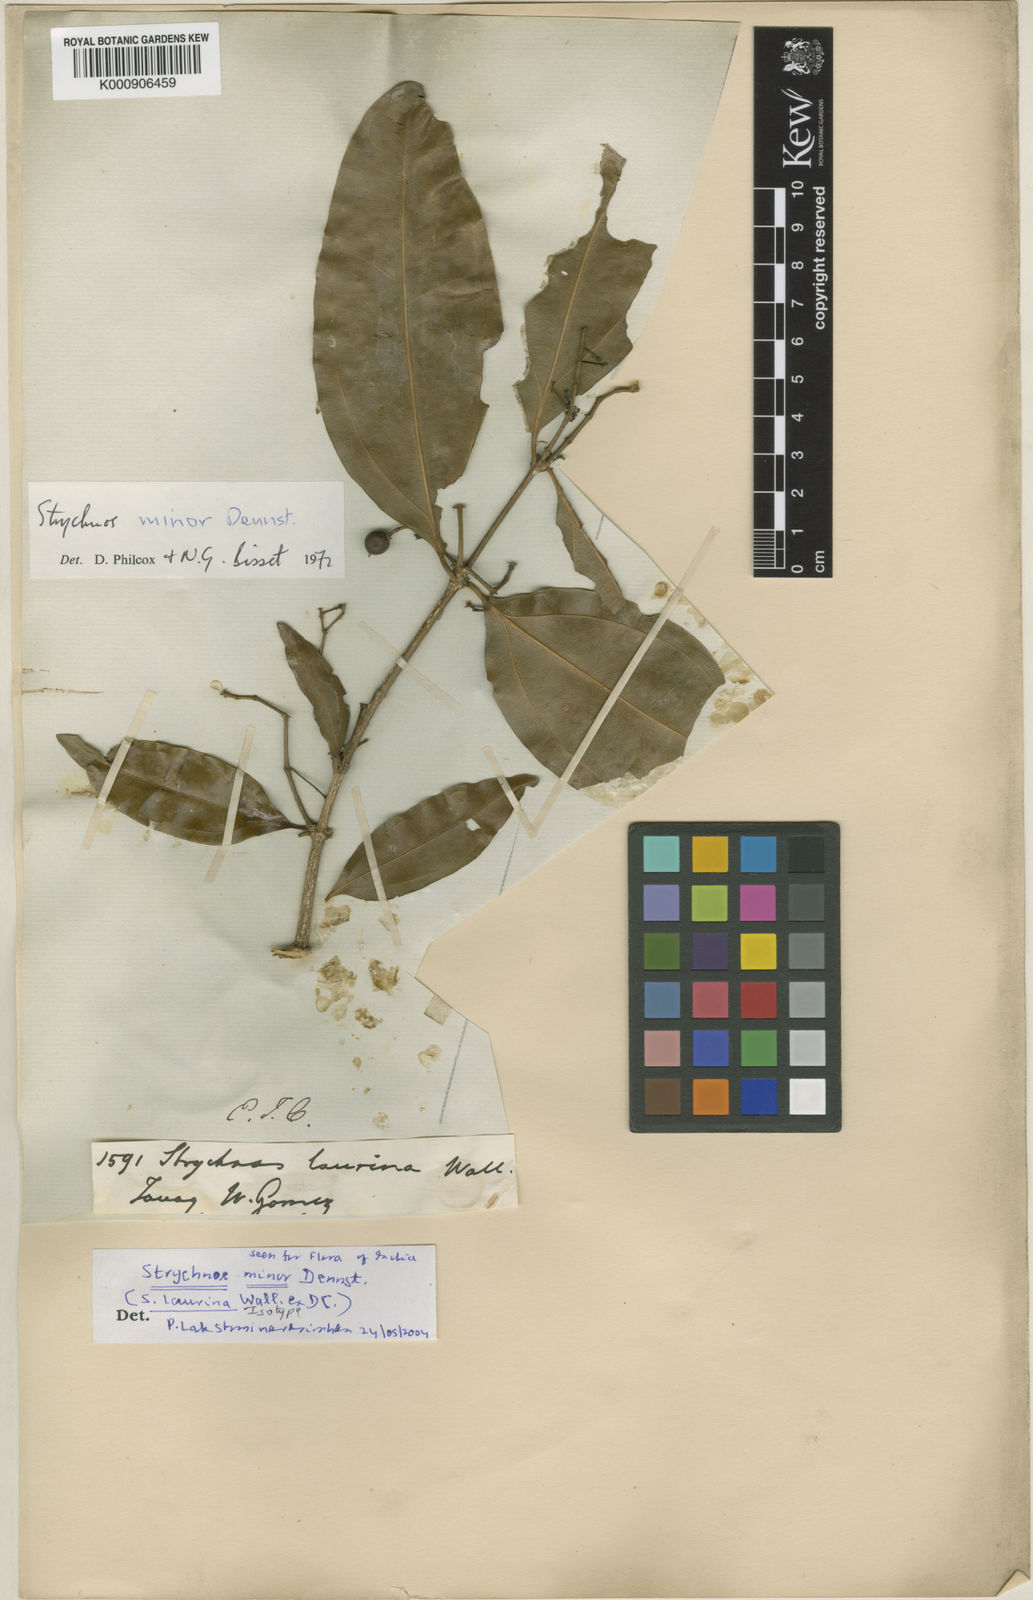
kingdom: Plantae
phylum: Tracheophyta
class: Magnoliopsida
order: Gentianales
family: Loganiaceae
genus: Strychnos
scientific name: Strychnos minor
